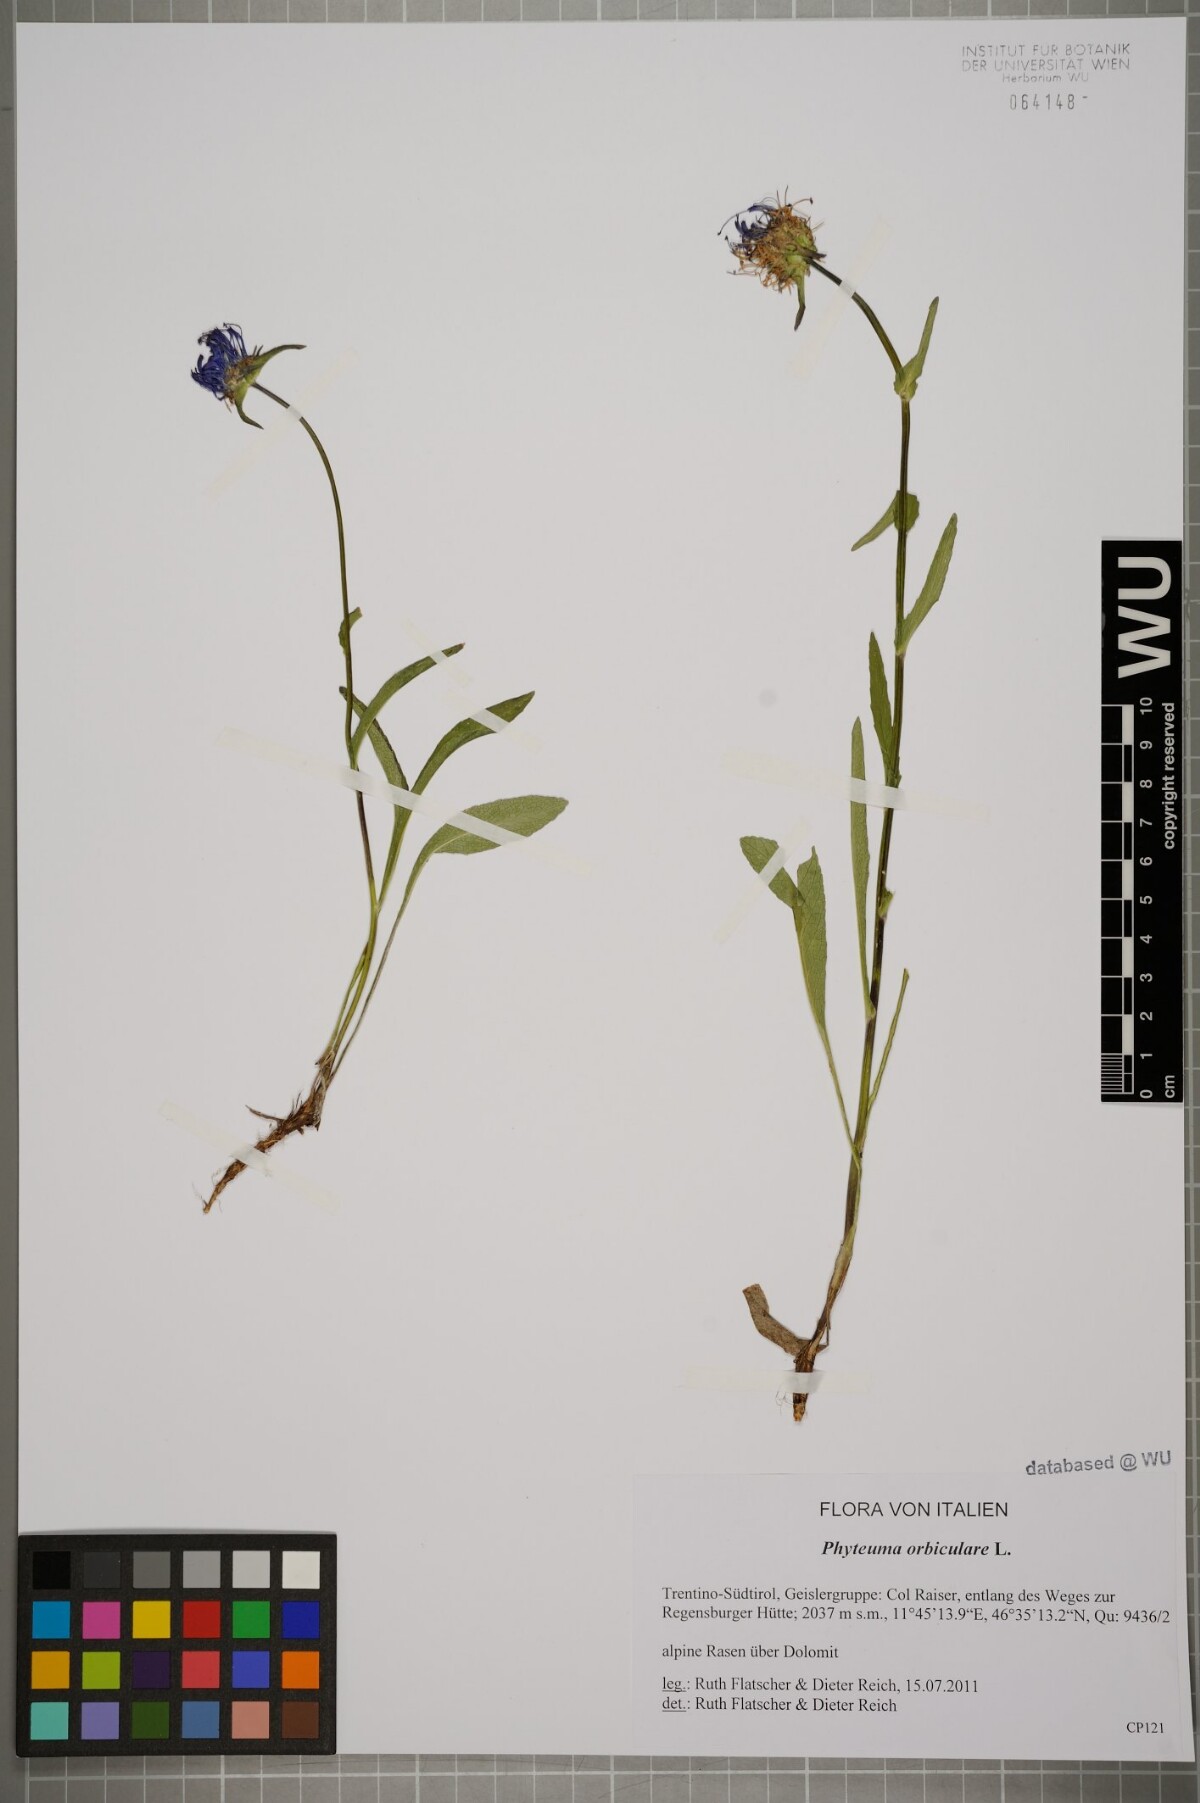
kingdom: Plantae
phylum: Tracheophyta
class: Magnoliopsida
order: Asterales
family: Campanulaceae
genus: Phyteuma
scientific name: Phyteuma orbiculare
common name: Round-headed rampion
